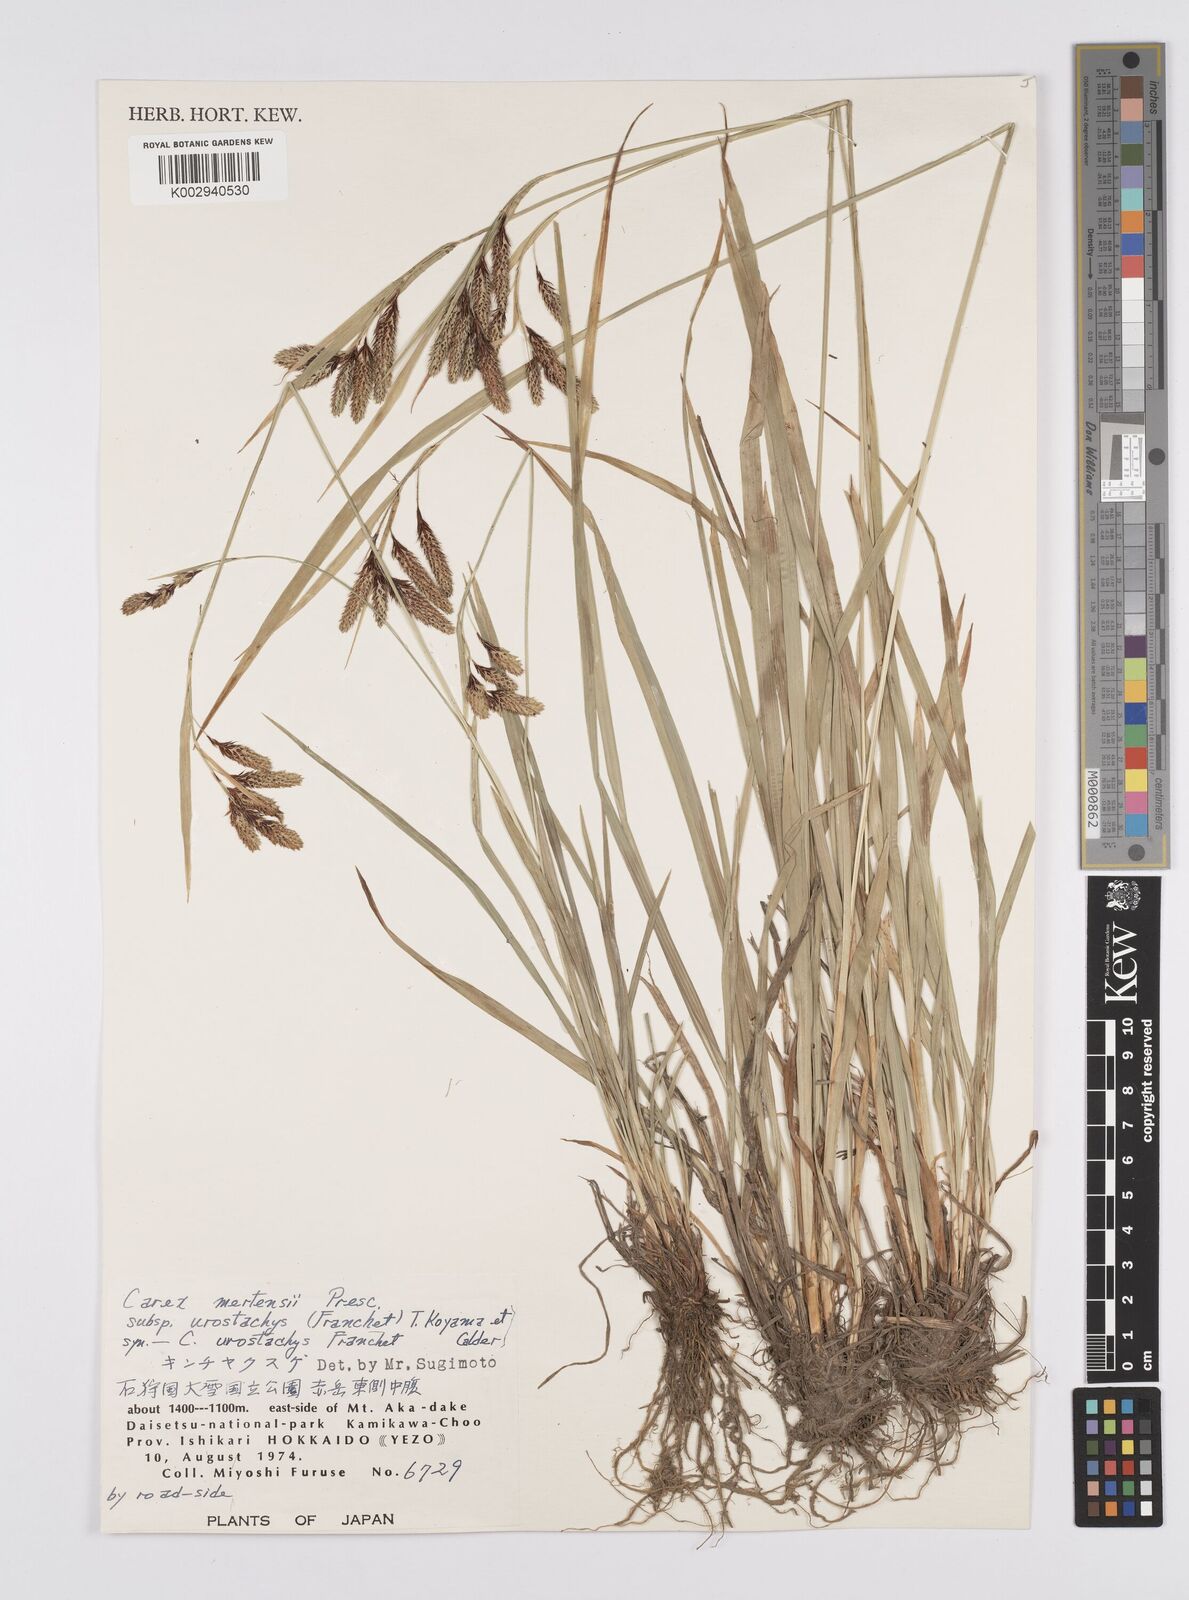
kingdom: Plantae
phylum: Tracheophyta
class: Liliopsida
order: Poales
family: Cyperaceae
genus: Carex
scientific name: Carex mertensii
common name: Mertens' sedge
